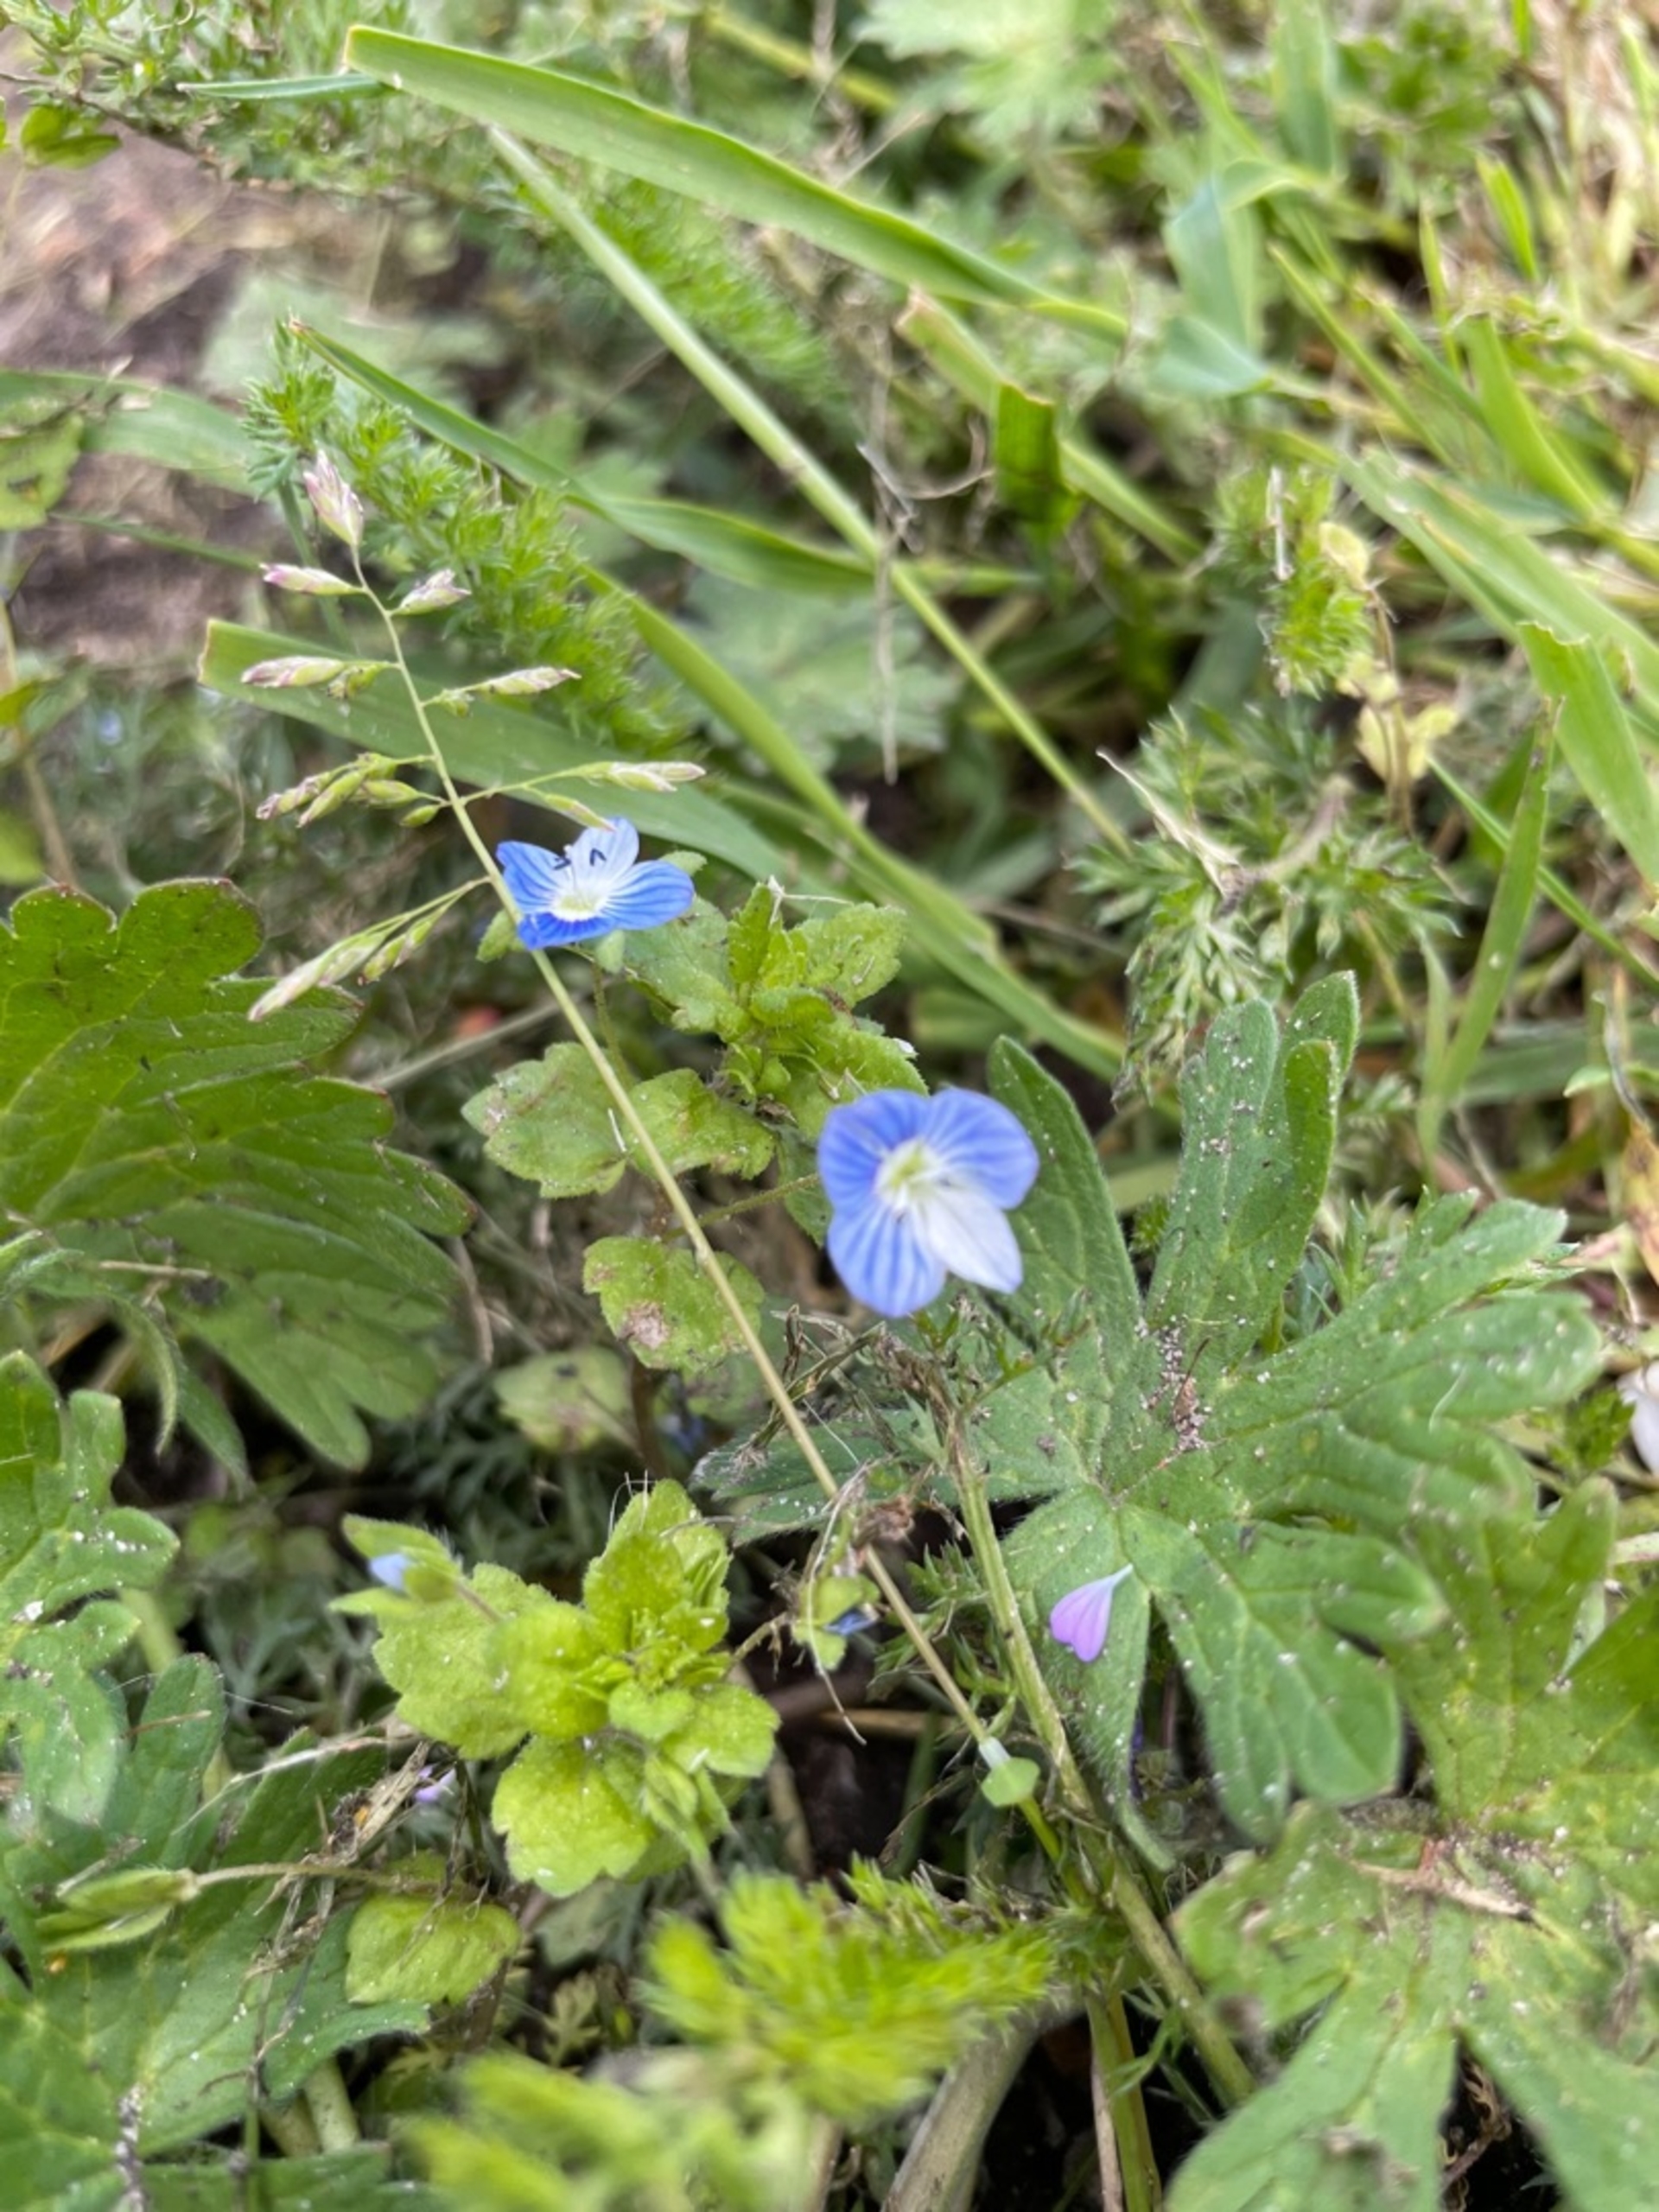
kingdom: Plantae
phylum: Tracheophyta
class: Magnoliopsida
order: Lamiales
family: Plantaginaceae
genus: Veronica
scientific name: Veronica persica
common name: Storkronet ærenpris
